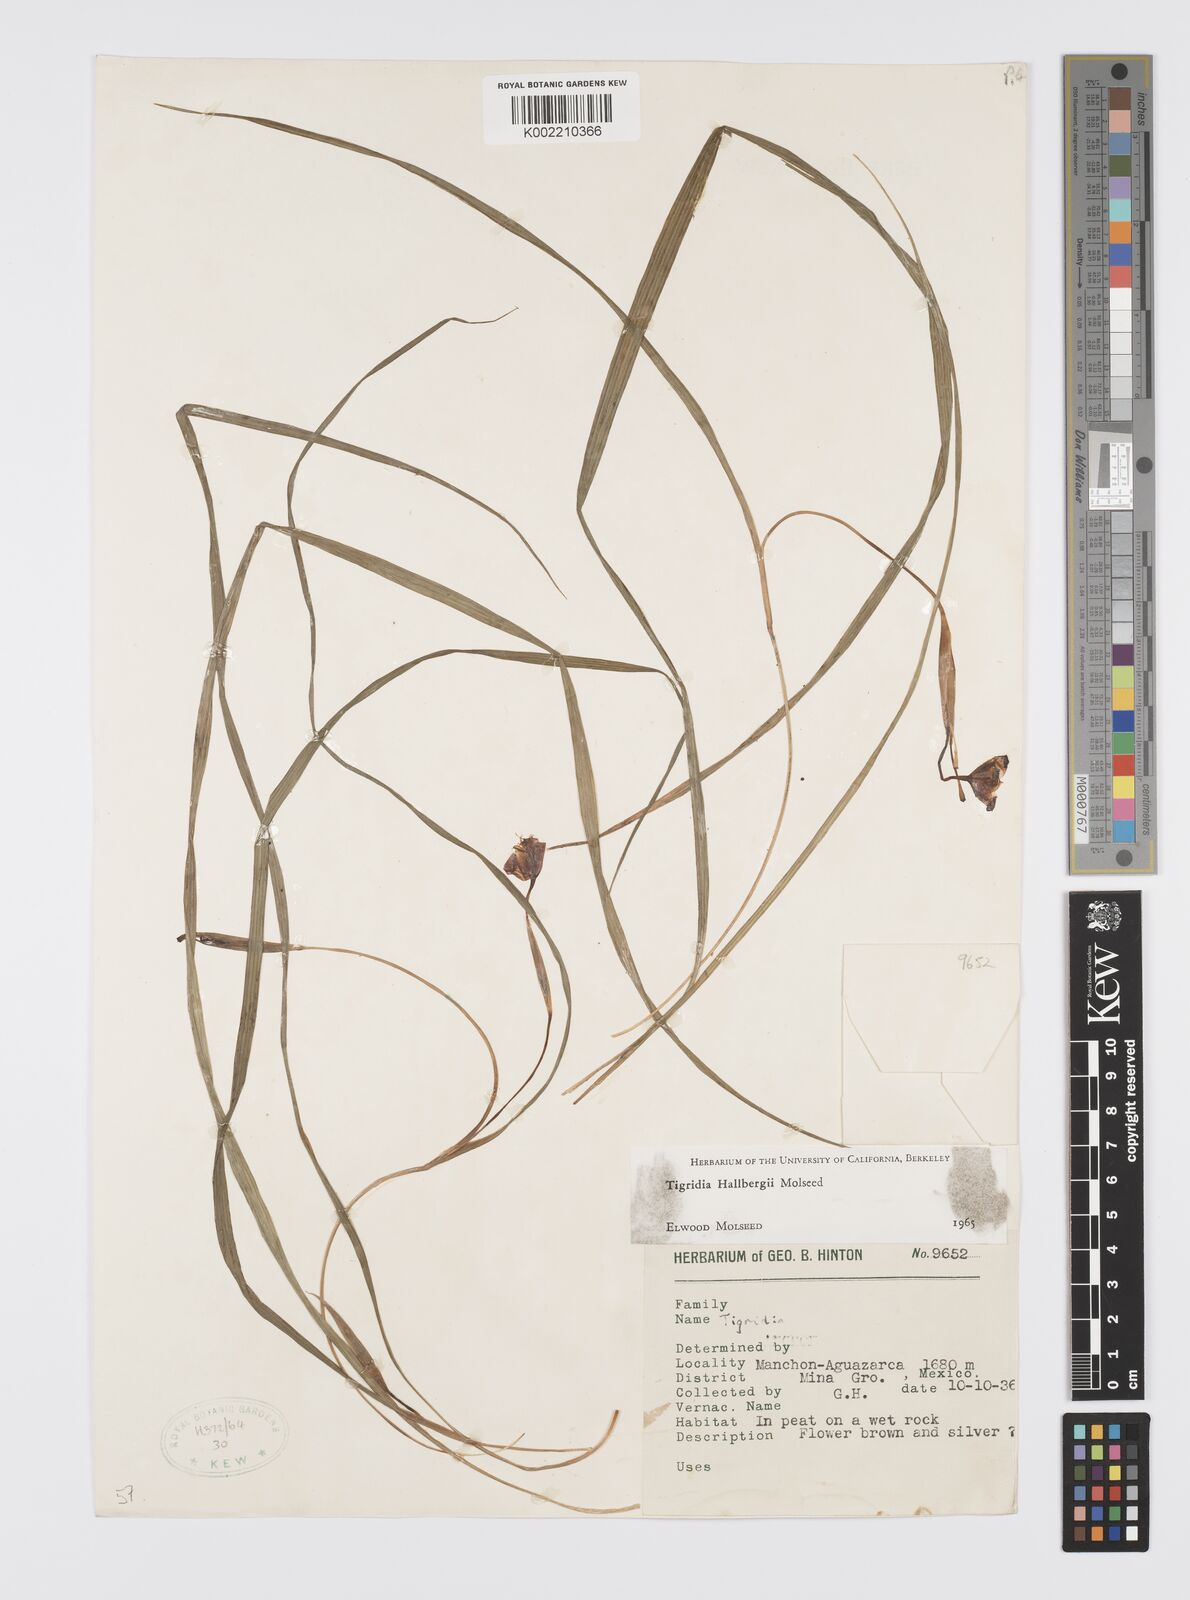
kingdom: Plantae
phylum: Tracheophyta
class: Liliopsida
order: Asparagales
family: Iridaceae
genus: Tigridia
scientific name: Tigridia hallbergii
